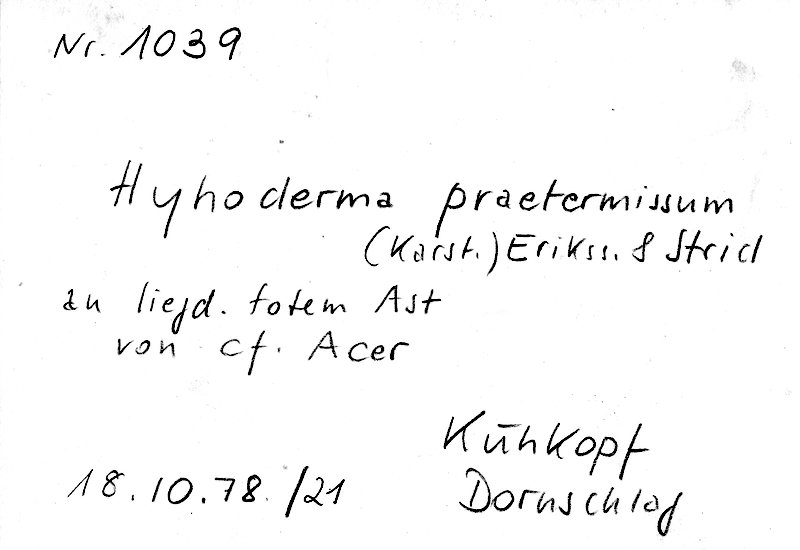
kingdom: Plantae
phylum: Tracheophyta
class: Magnoliopsida
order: Sapindales
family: Sapindaceae
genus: Acer
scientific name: Acer
